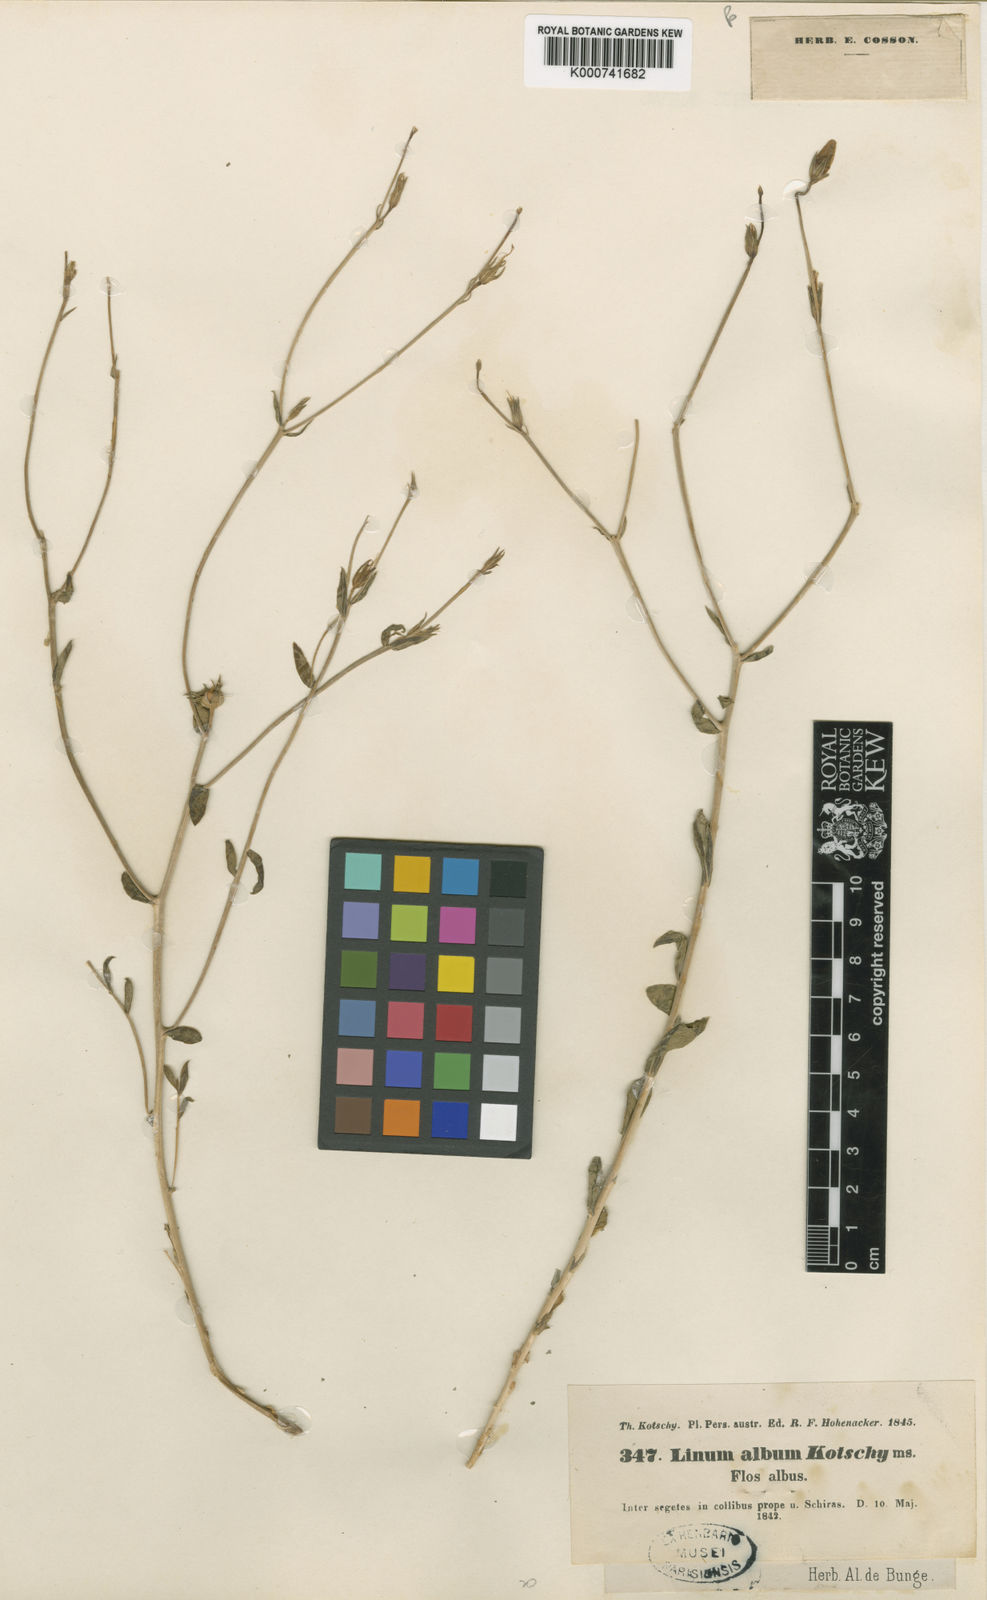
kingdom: Plantae
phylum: Tracheophyta
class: Magnoliopsida
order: Malpighiales
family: Linaceae
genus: Linum
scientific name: Linum album
